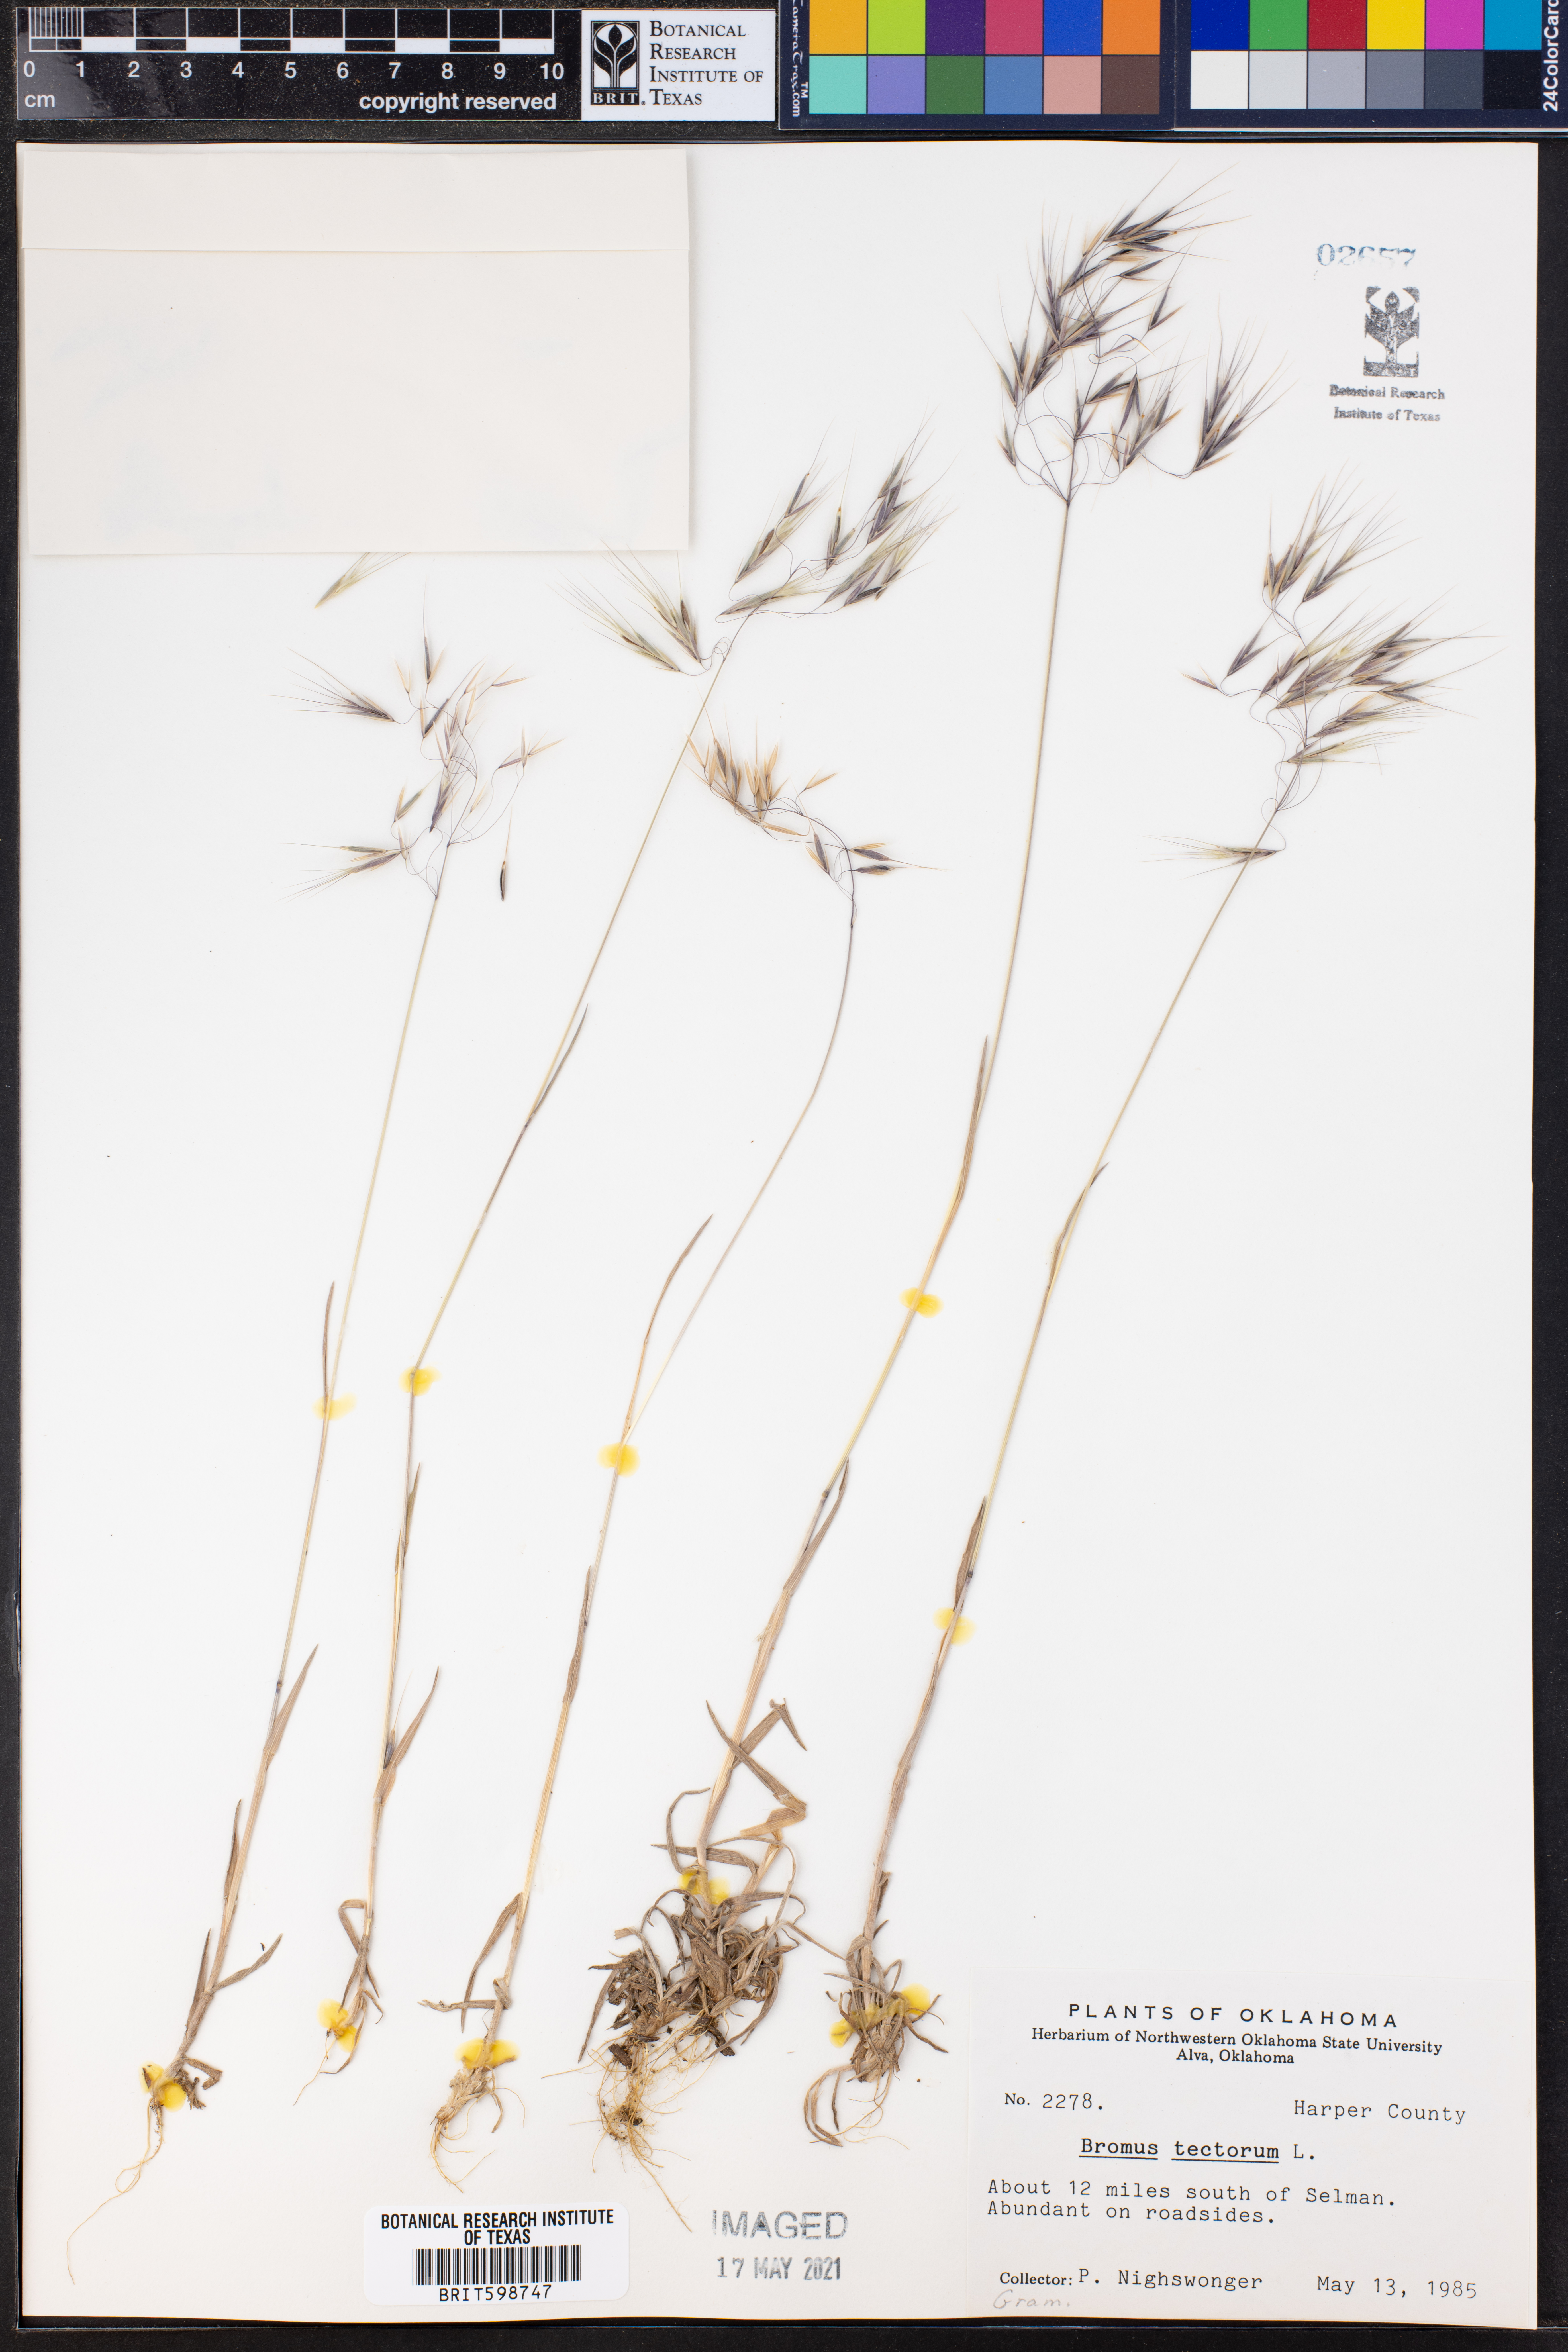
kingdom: Plantae
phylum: Tracheophyta
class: Liliopsida
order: Poales
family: Poaceae
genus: Bromus
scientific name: Bromus tectorum
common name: Cheatgrass
